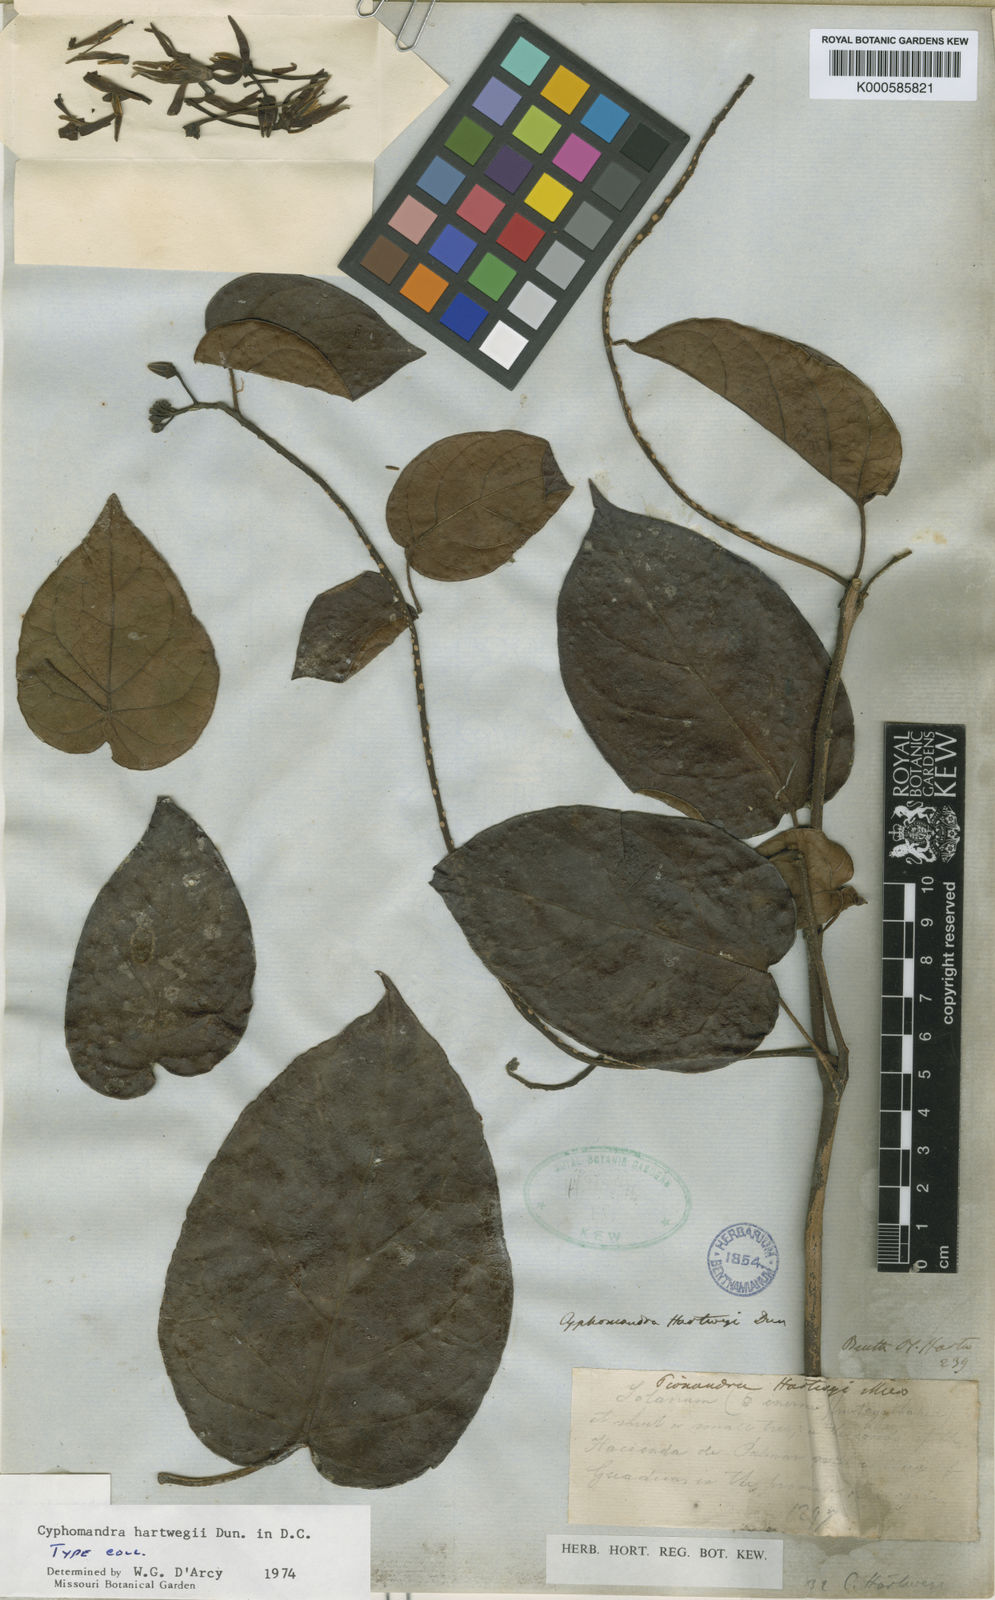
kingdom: Plantae
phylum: Tracheophyta
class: Magnoliopsida
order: Solanales
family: Solanaceae
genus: Solanum
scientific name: Solanum splendens
